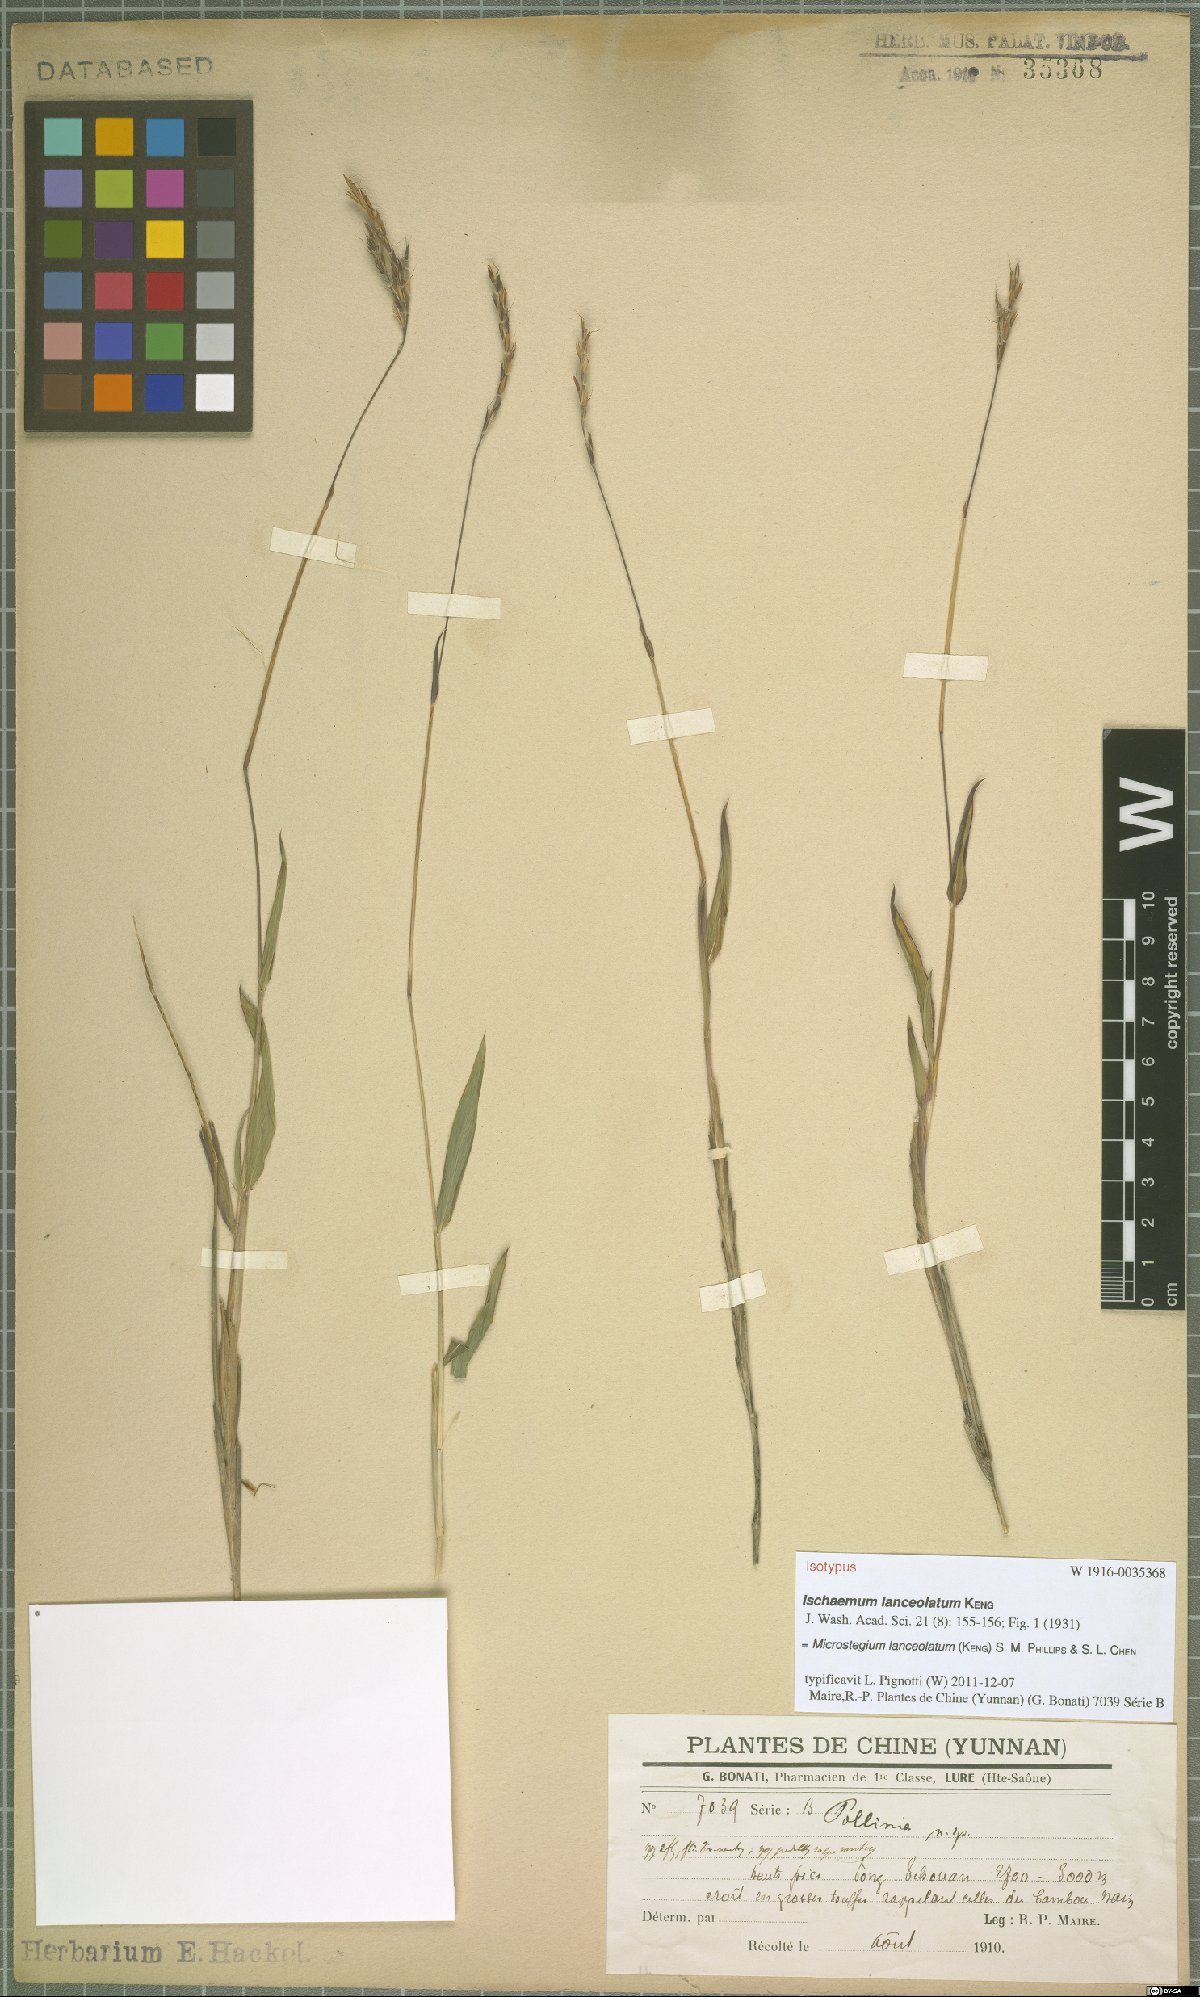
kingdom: Plantae
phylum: Tracheophyta
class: Liliopsida
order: Poales
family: Poaceae
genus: Microstegium
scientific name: Microstegium lanceolatum
